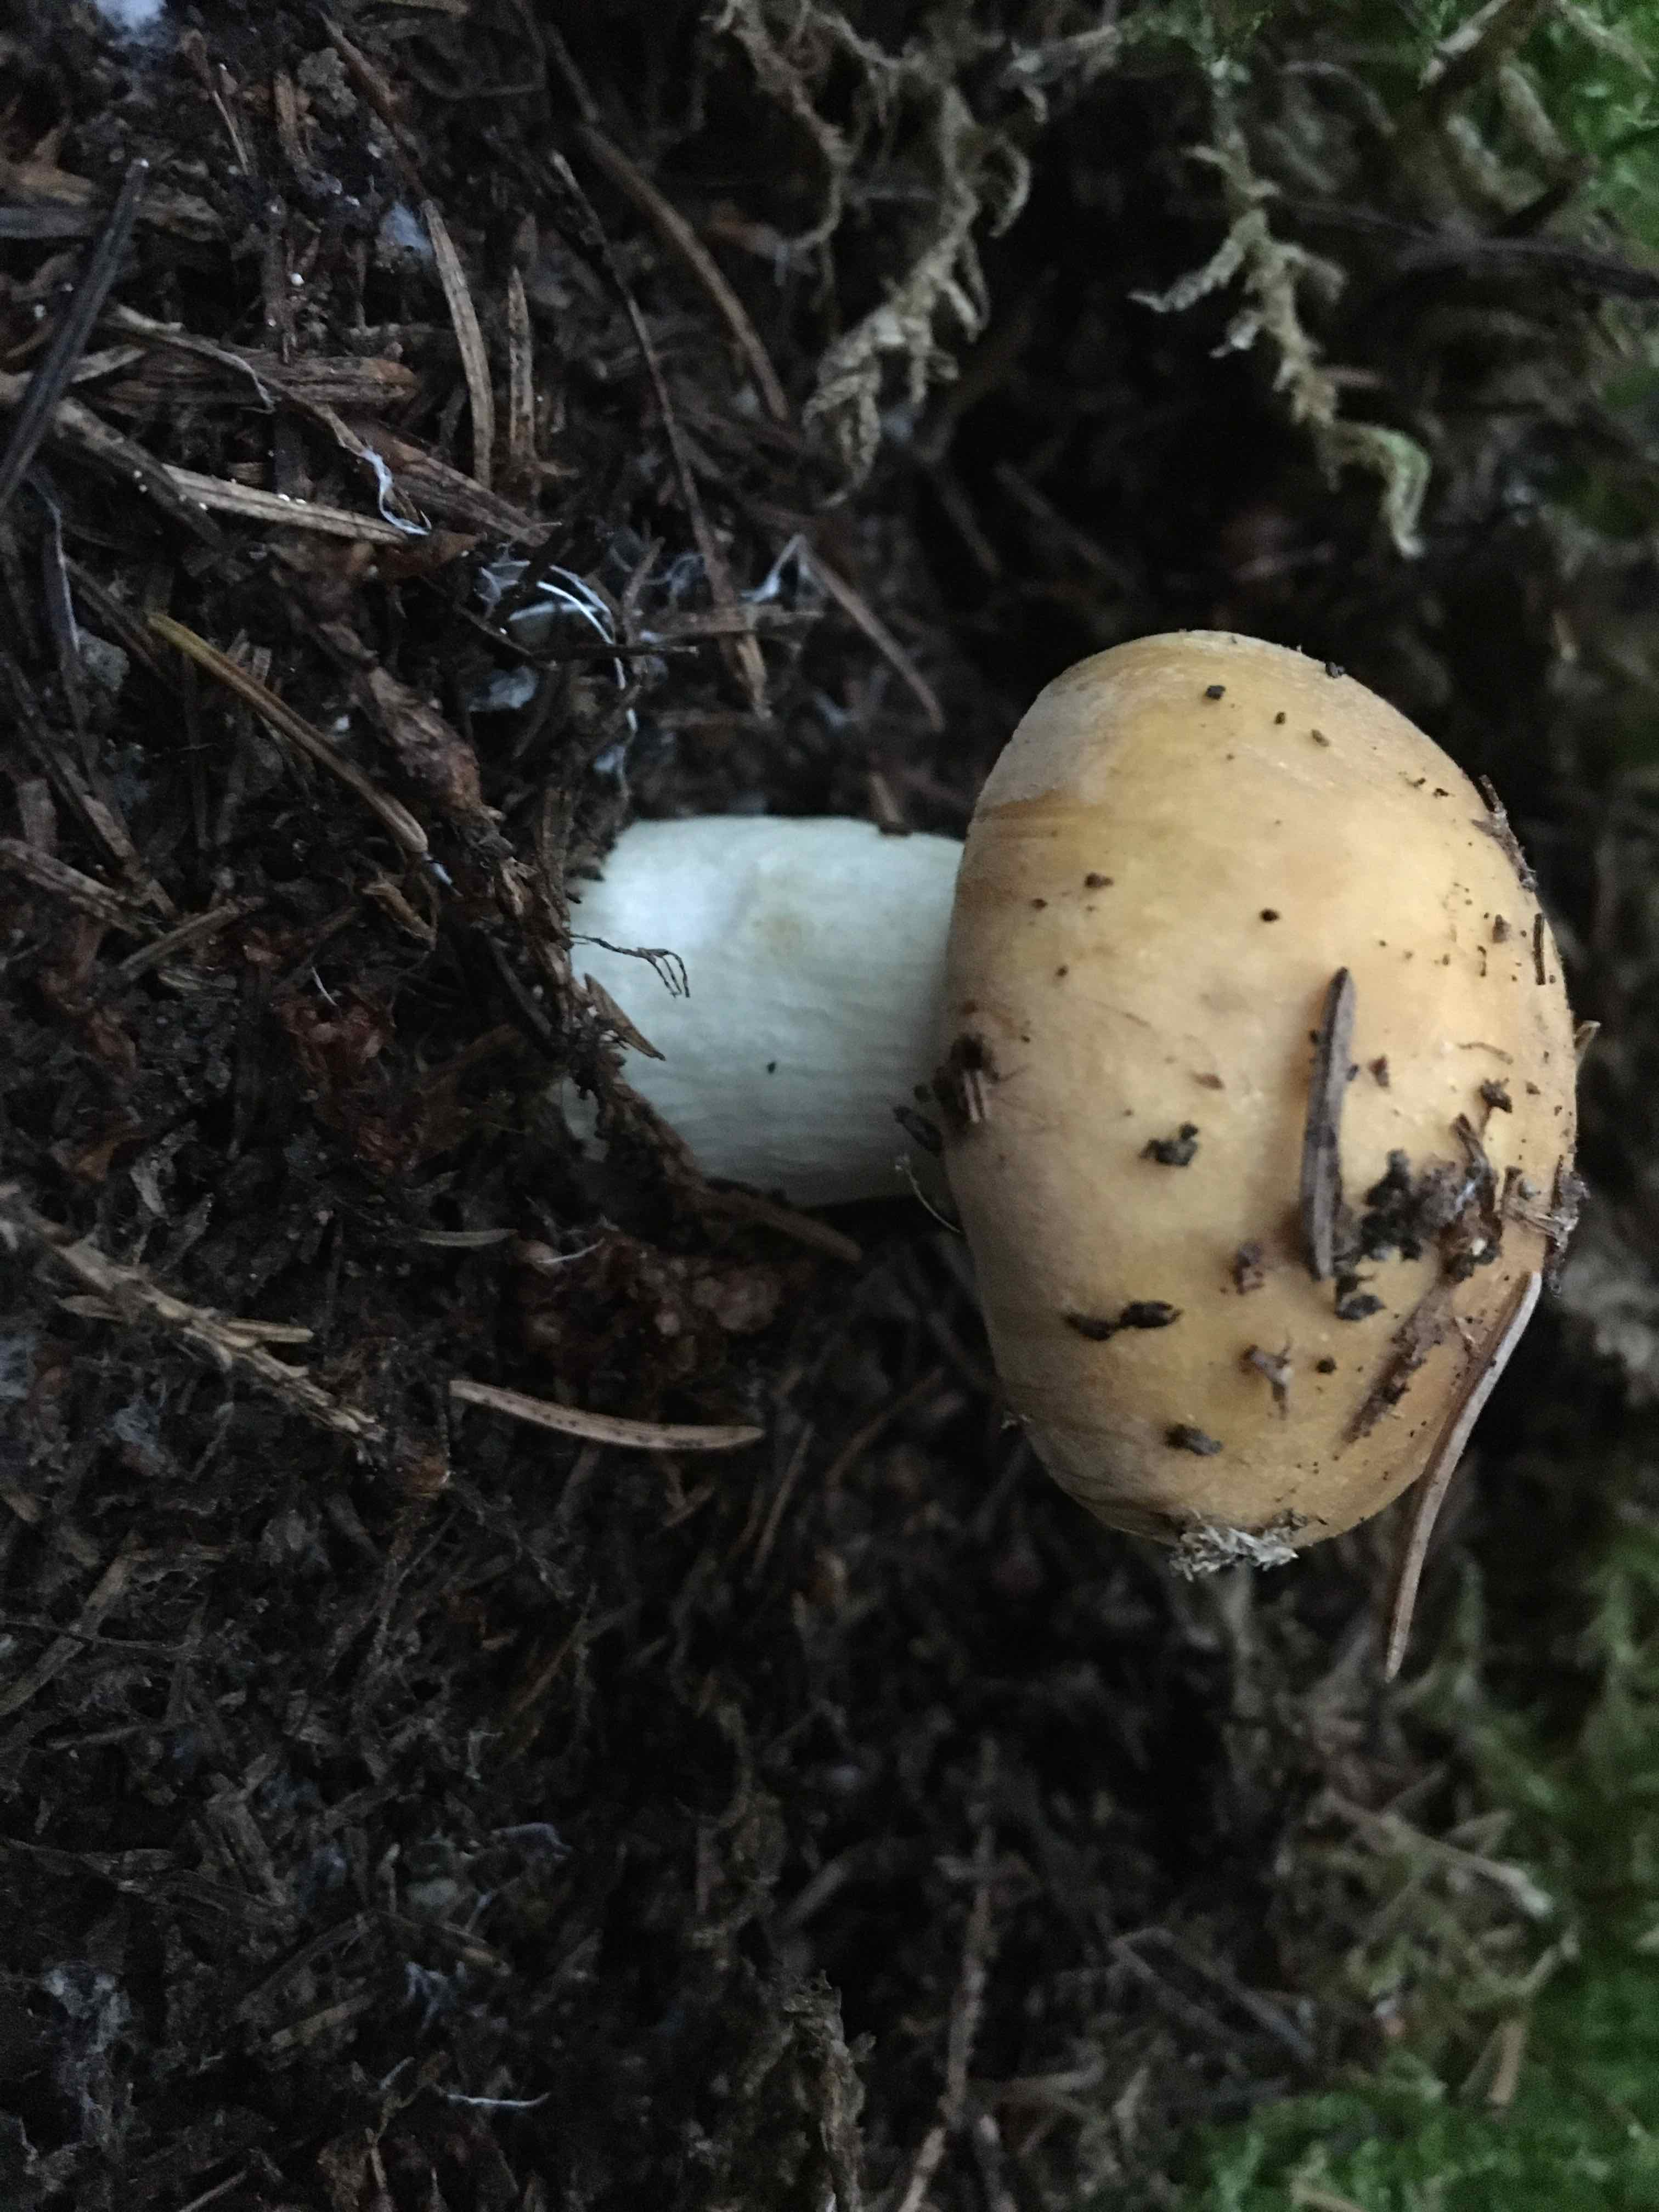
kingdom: Fungi
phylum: Basidiomycota
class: Agaricomycetes
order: Russulales
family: Russulaceae
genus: Russula
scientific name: Russula ochroleuca
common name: okkergul skørhat
